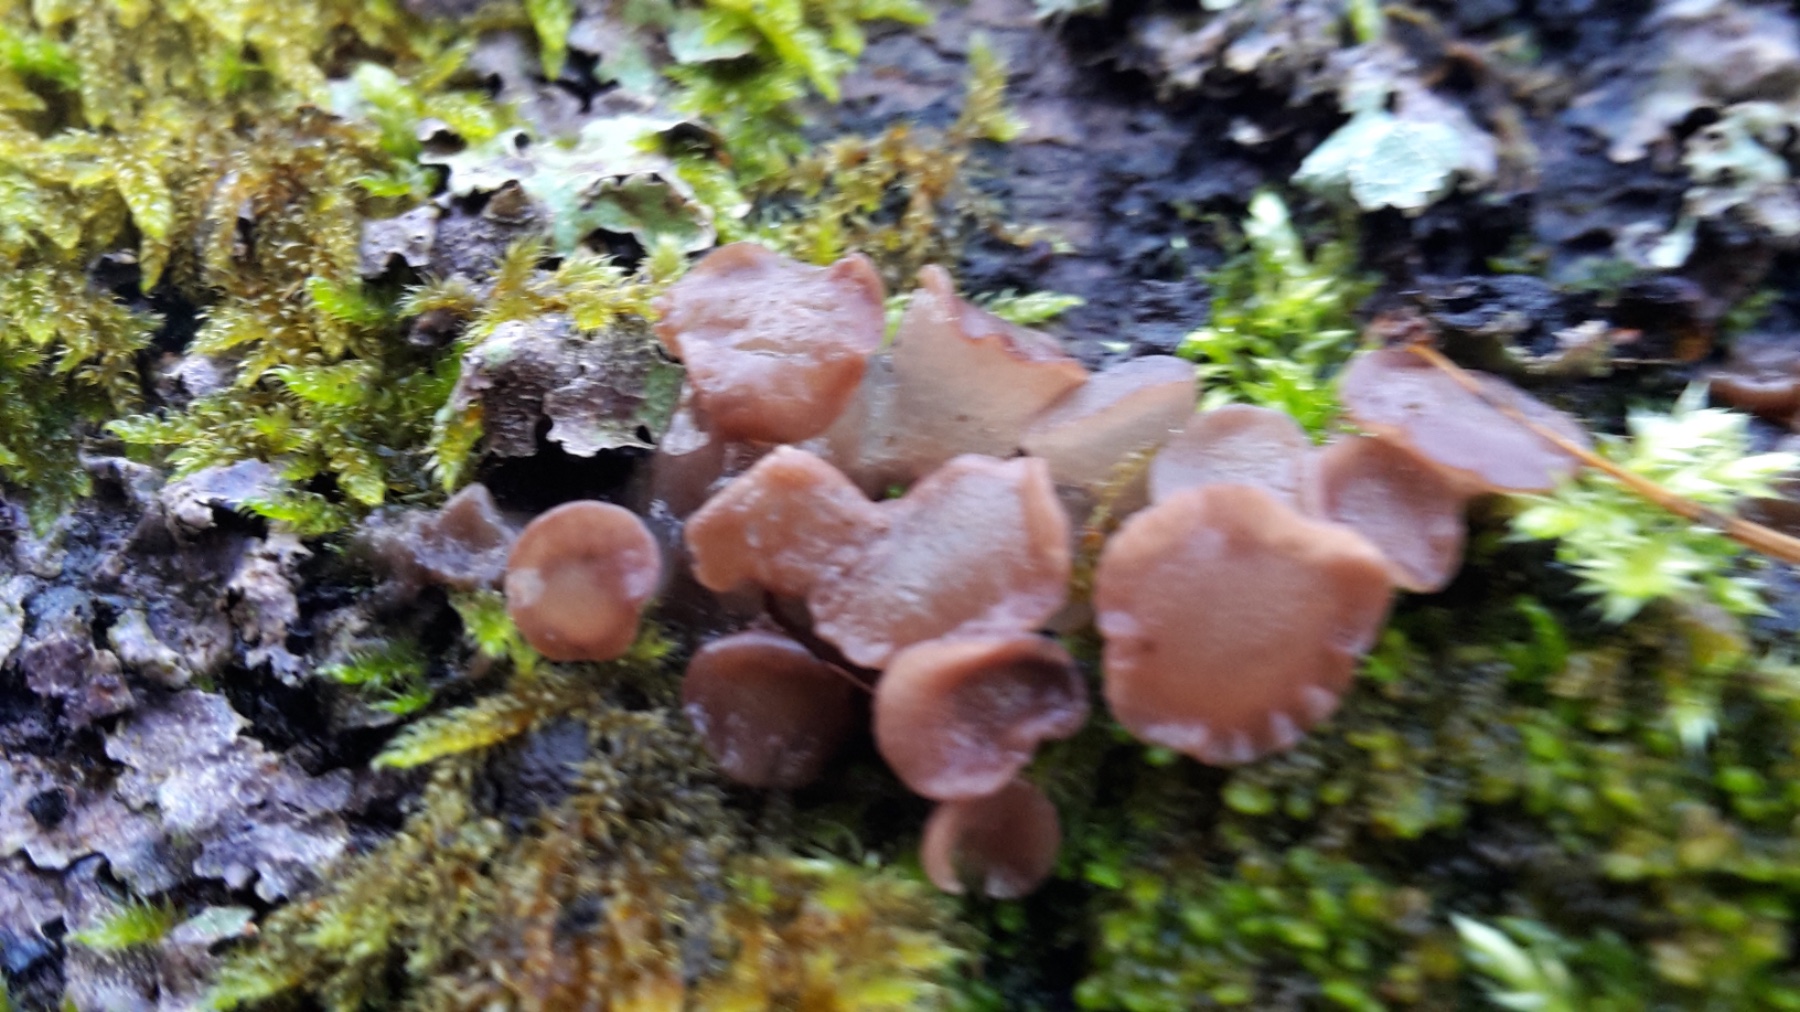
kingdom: Fungi
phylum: Ascomycota
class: Leotiomycetes
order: Helotiales
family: Gelatinodiscaceae
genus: Neobulgaria
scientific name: Neobulgaria pura
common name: bleg bævreskive
